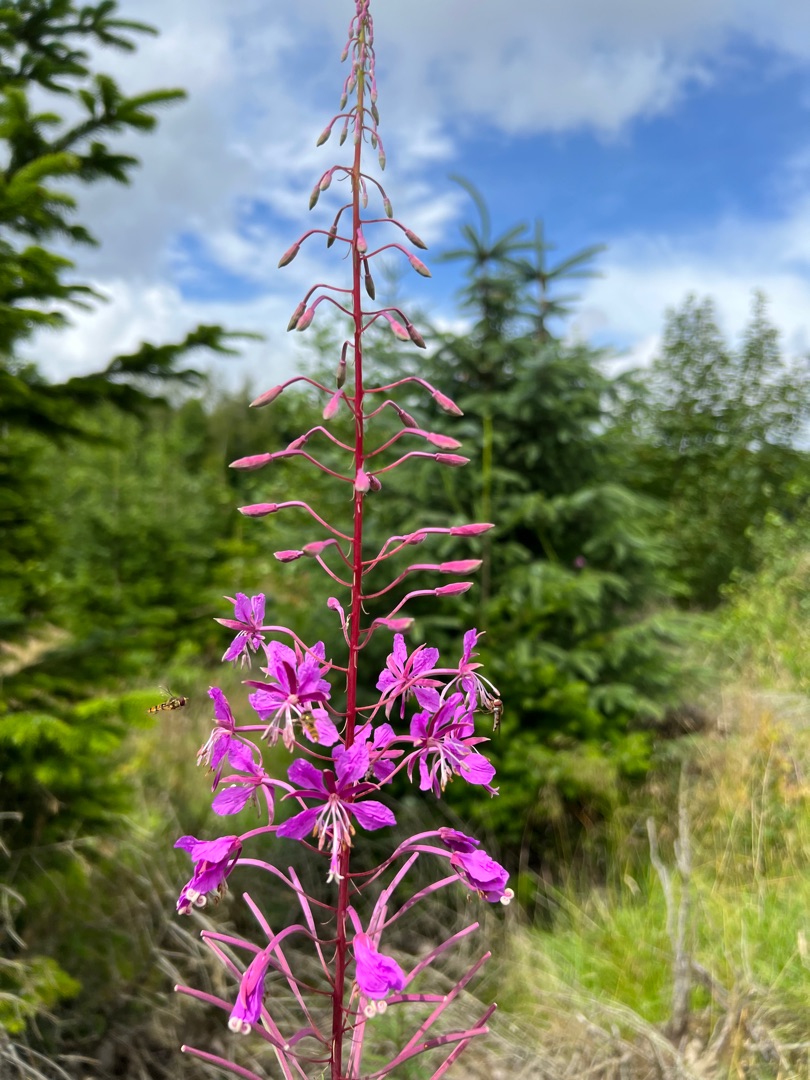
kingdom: Plantae
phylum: Tracheophyta
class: Magnoliopsida
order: Myrtales
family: Onagraceae
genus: Chamaenerion
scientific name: Chamaenerion angustifolium
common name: Gederams
